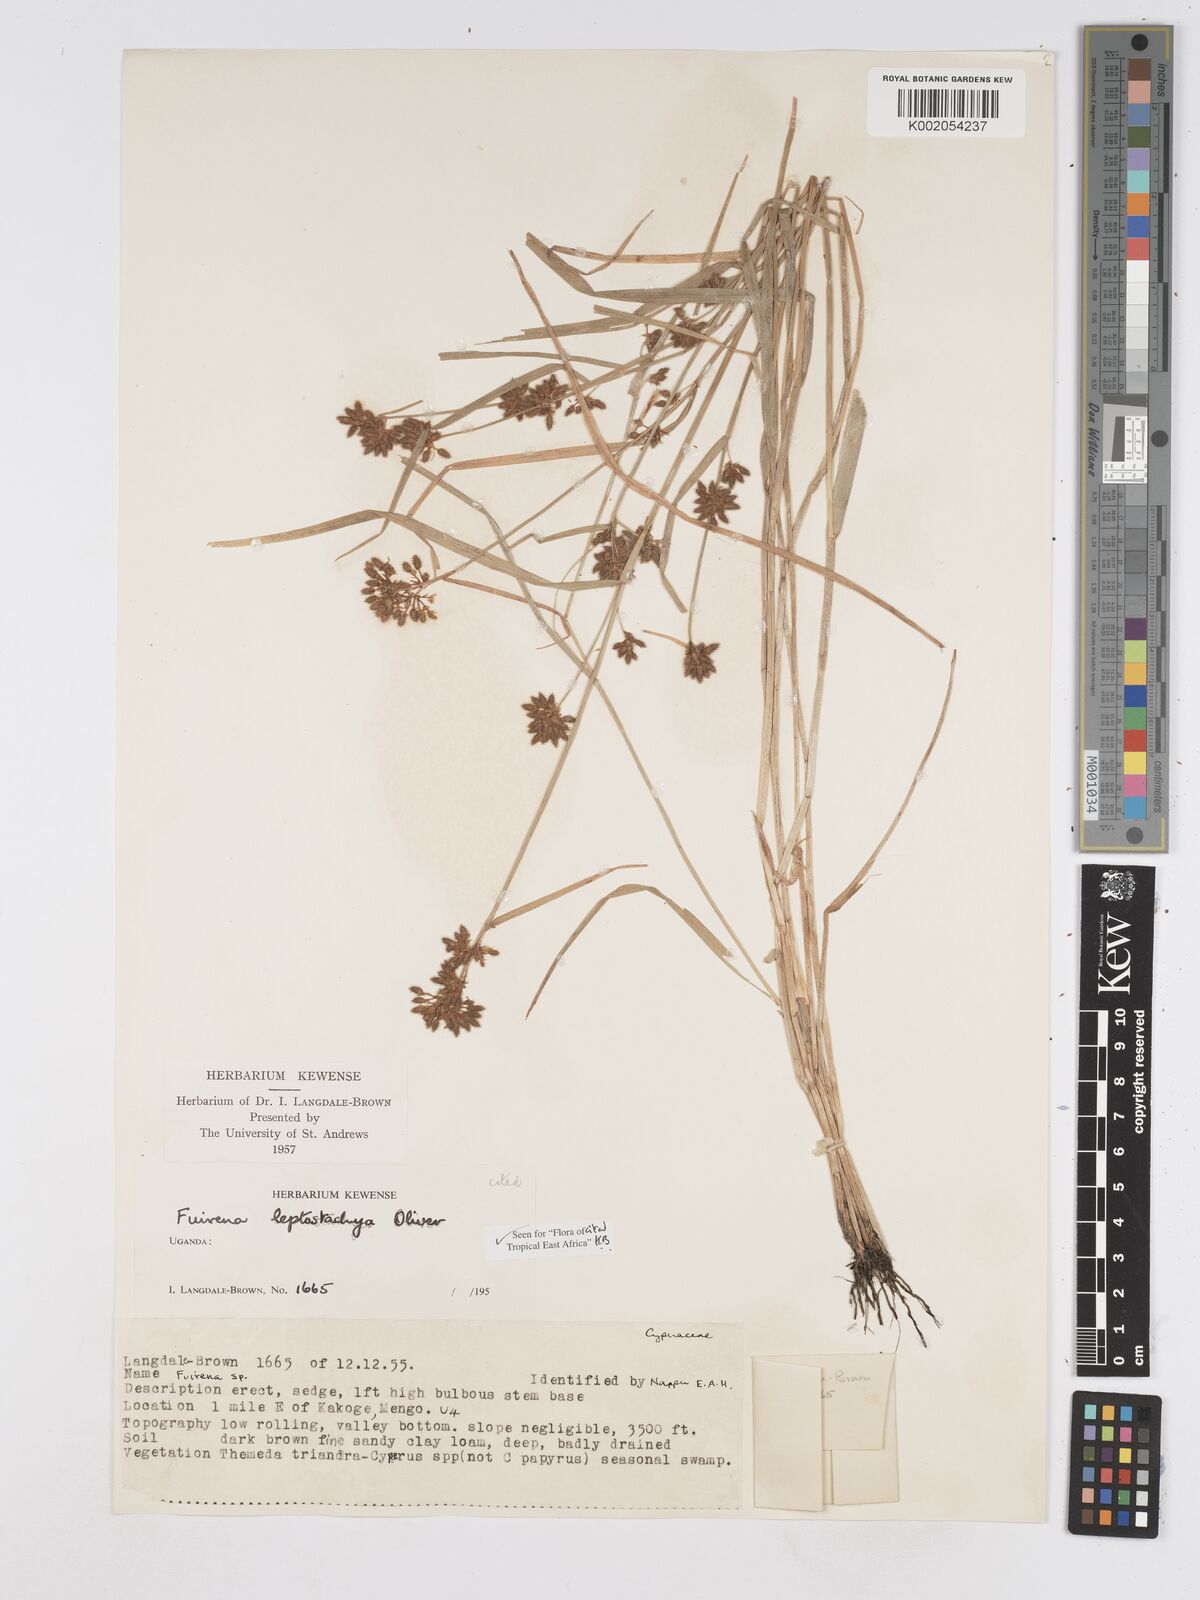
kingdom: Plantae
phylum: Tracheophyta
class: Liliopsida
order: Poales
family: Cyperaceae
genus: Fuirena
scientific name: Fuirena leptostachya
